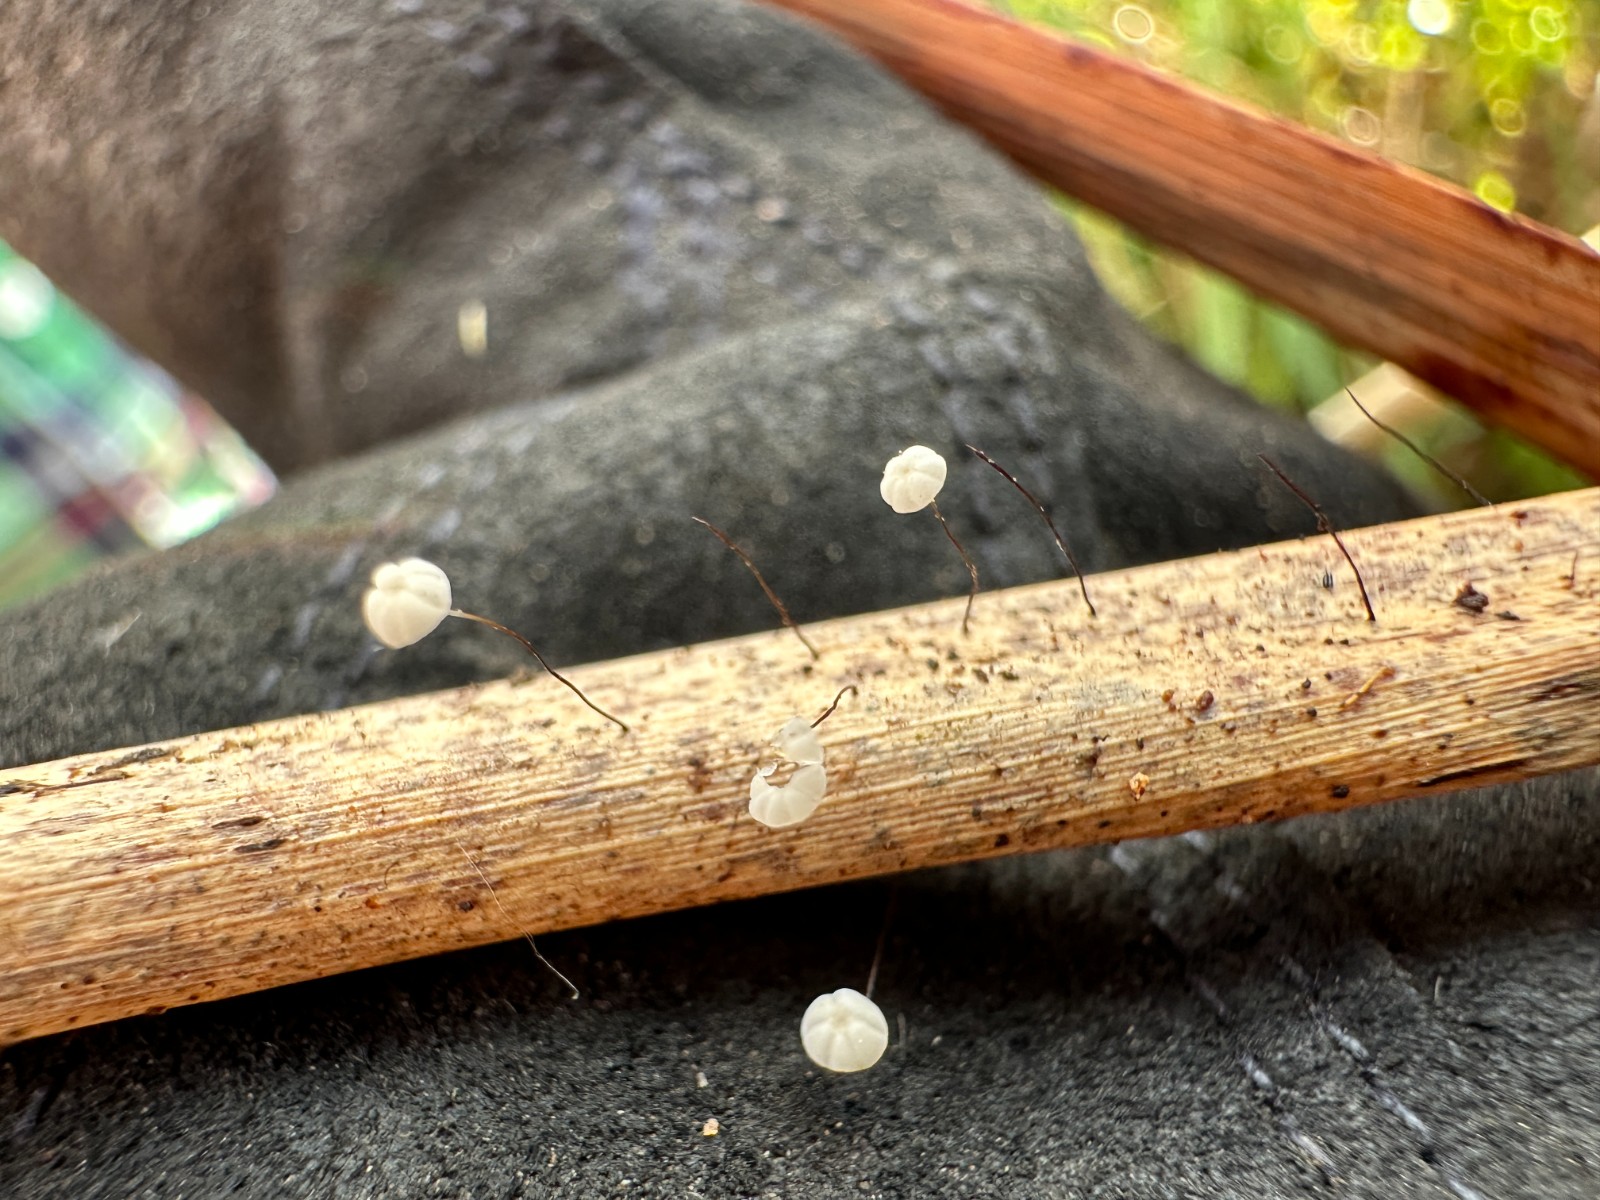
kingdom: Fungi
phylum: Basidiomycota
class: Agaricomycetes
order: Agaricales
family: Marasmiaceae
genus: Marasmius
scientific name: Marasmius limosus
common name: kær-bruskhat
